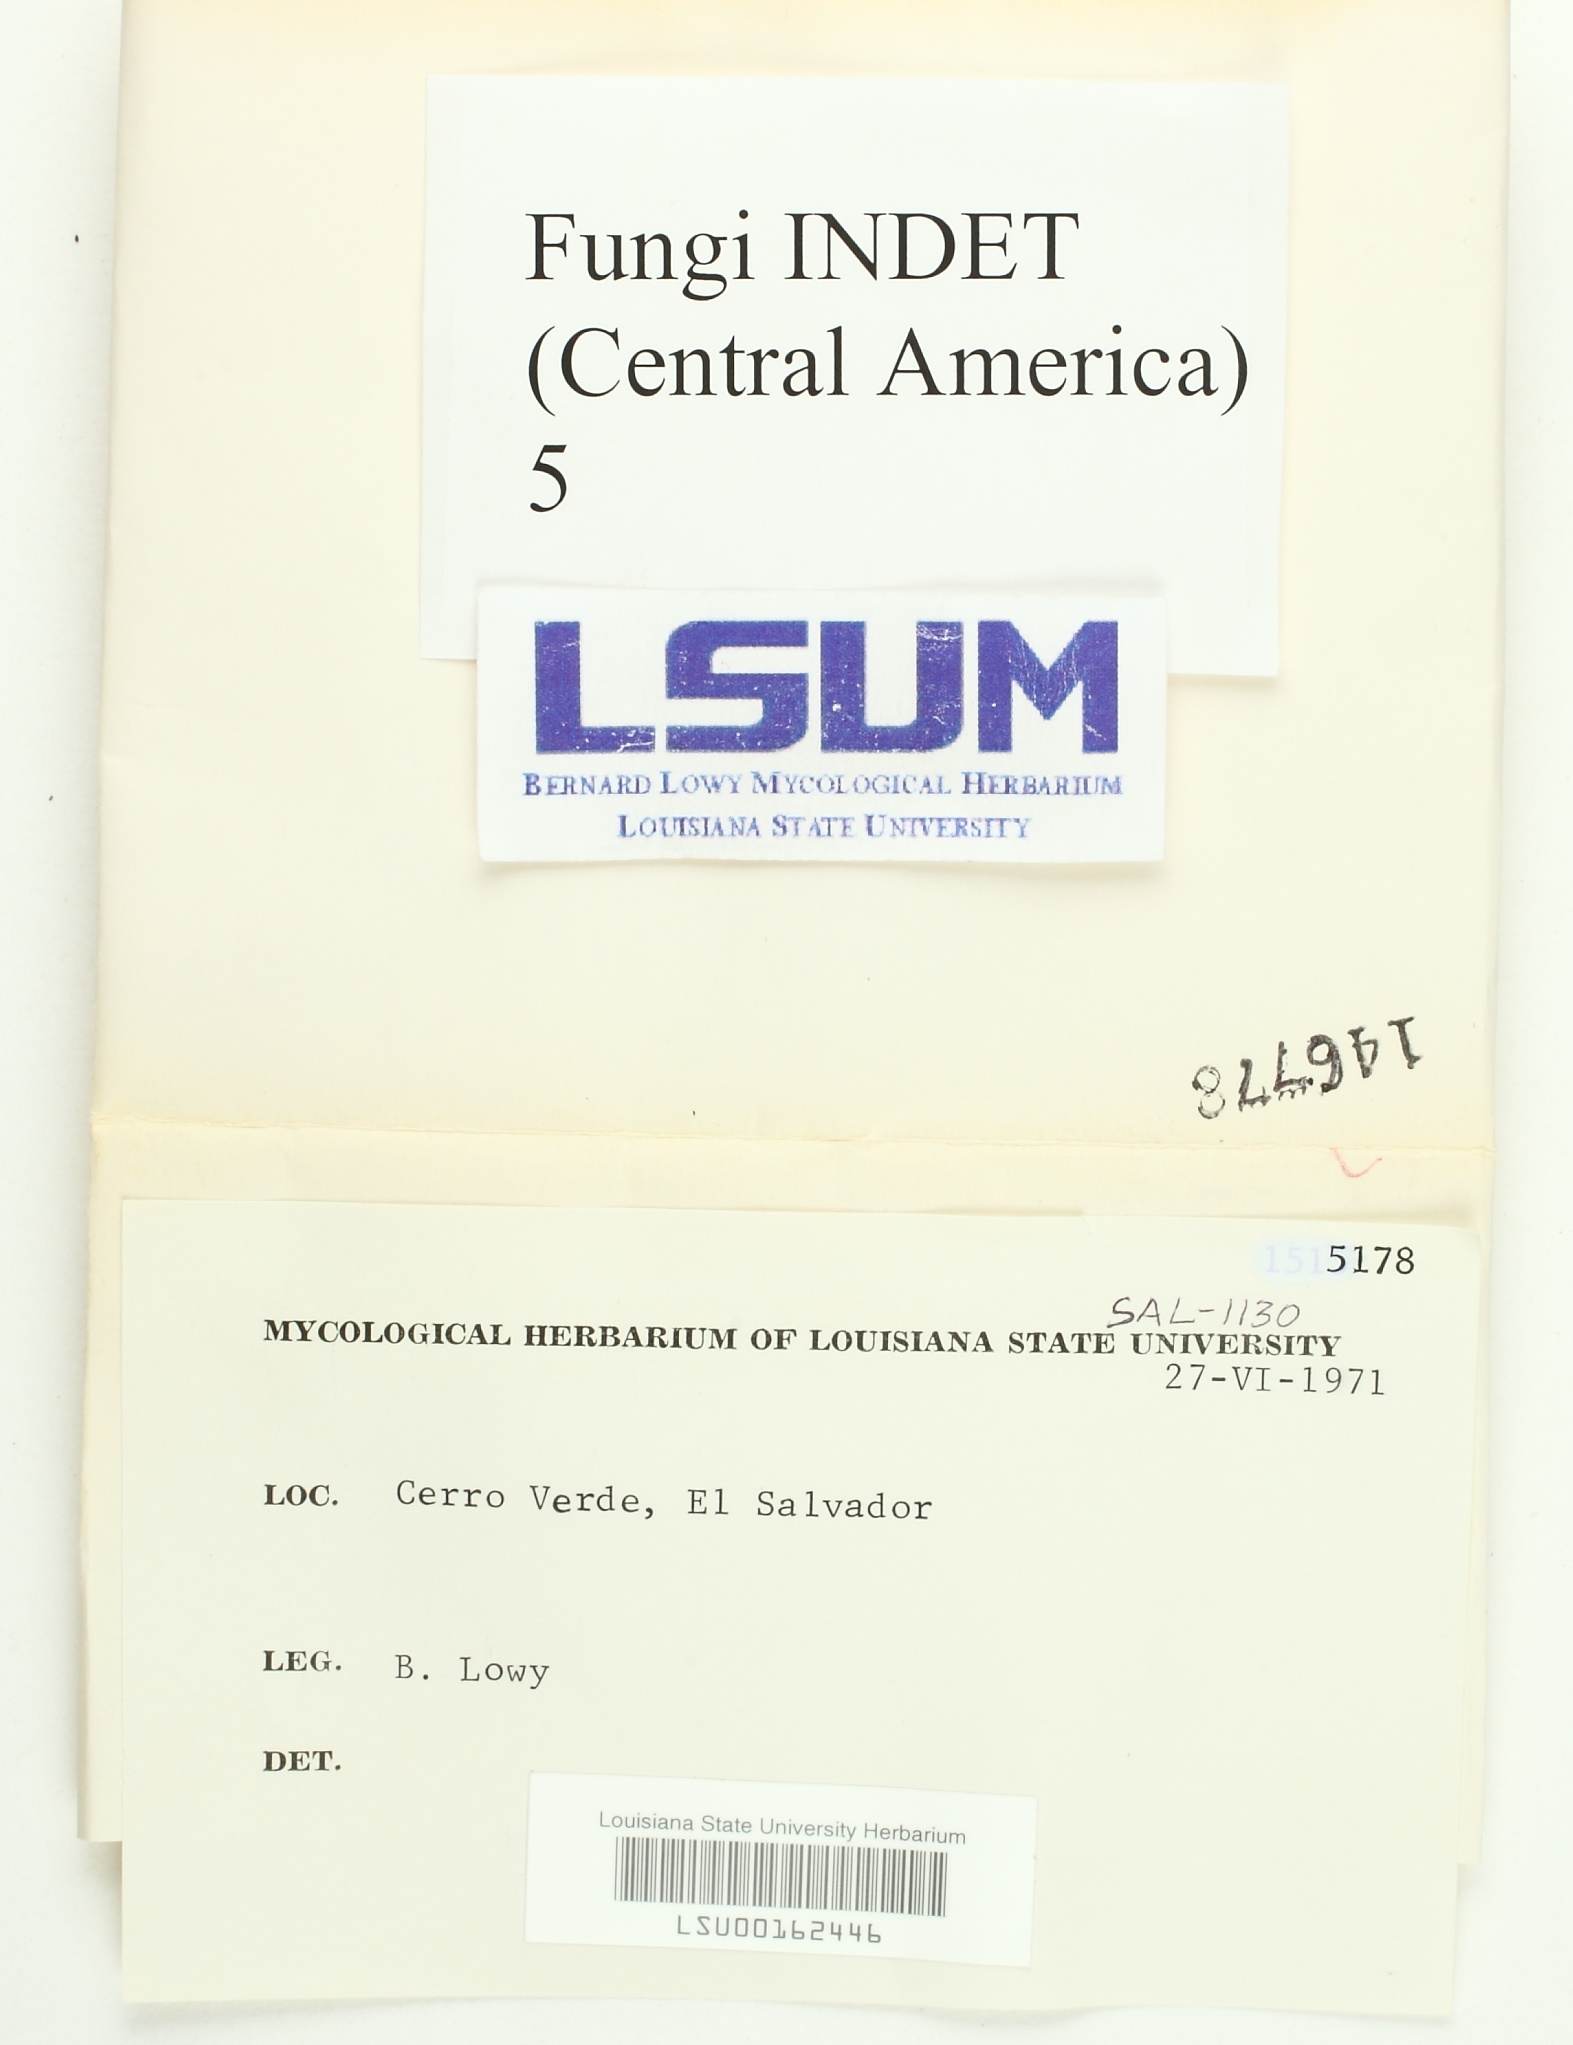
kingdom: Fungi
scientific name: Fungi
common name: Fungi
